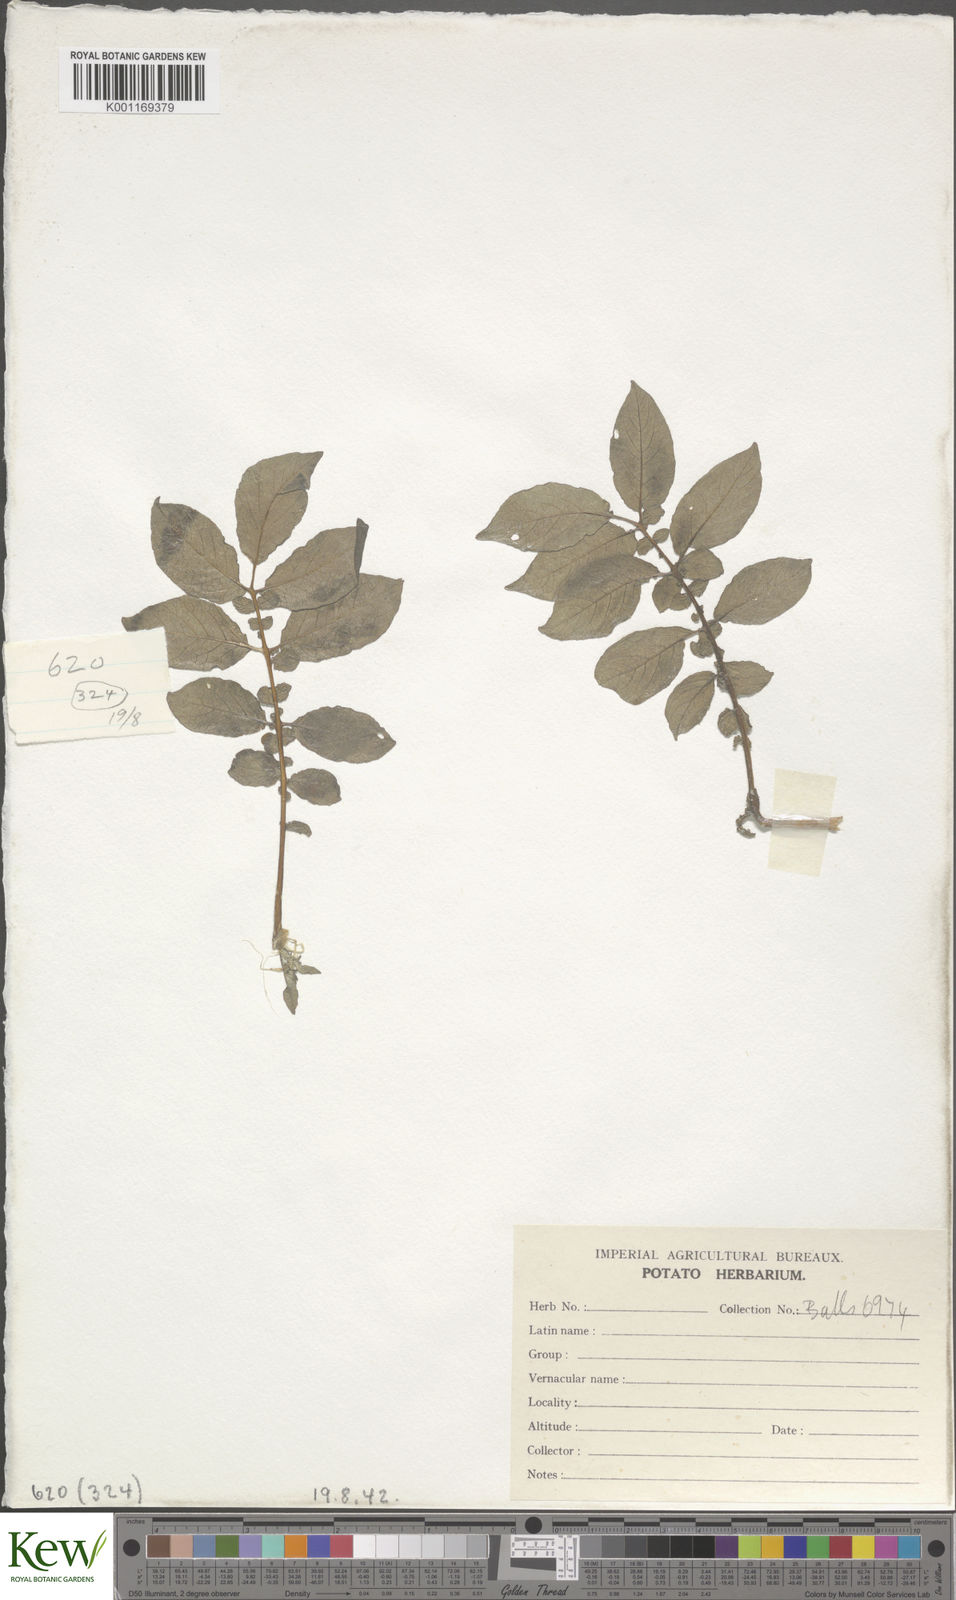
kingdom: Plantae
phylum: Tracheophyta
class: Magnoliopsida
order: Solanales
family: Solanaceae
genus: Solanum
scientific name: Solanum chaucha
